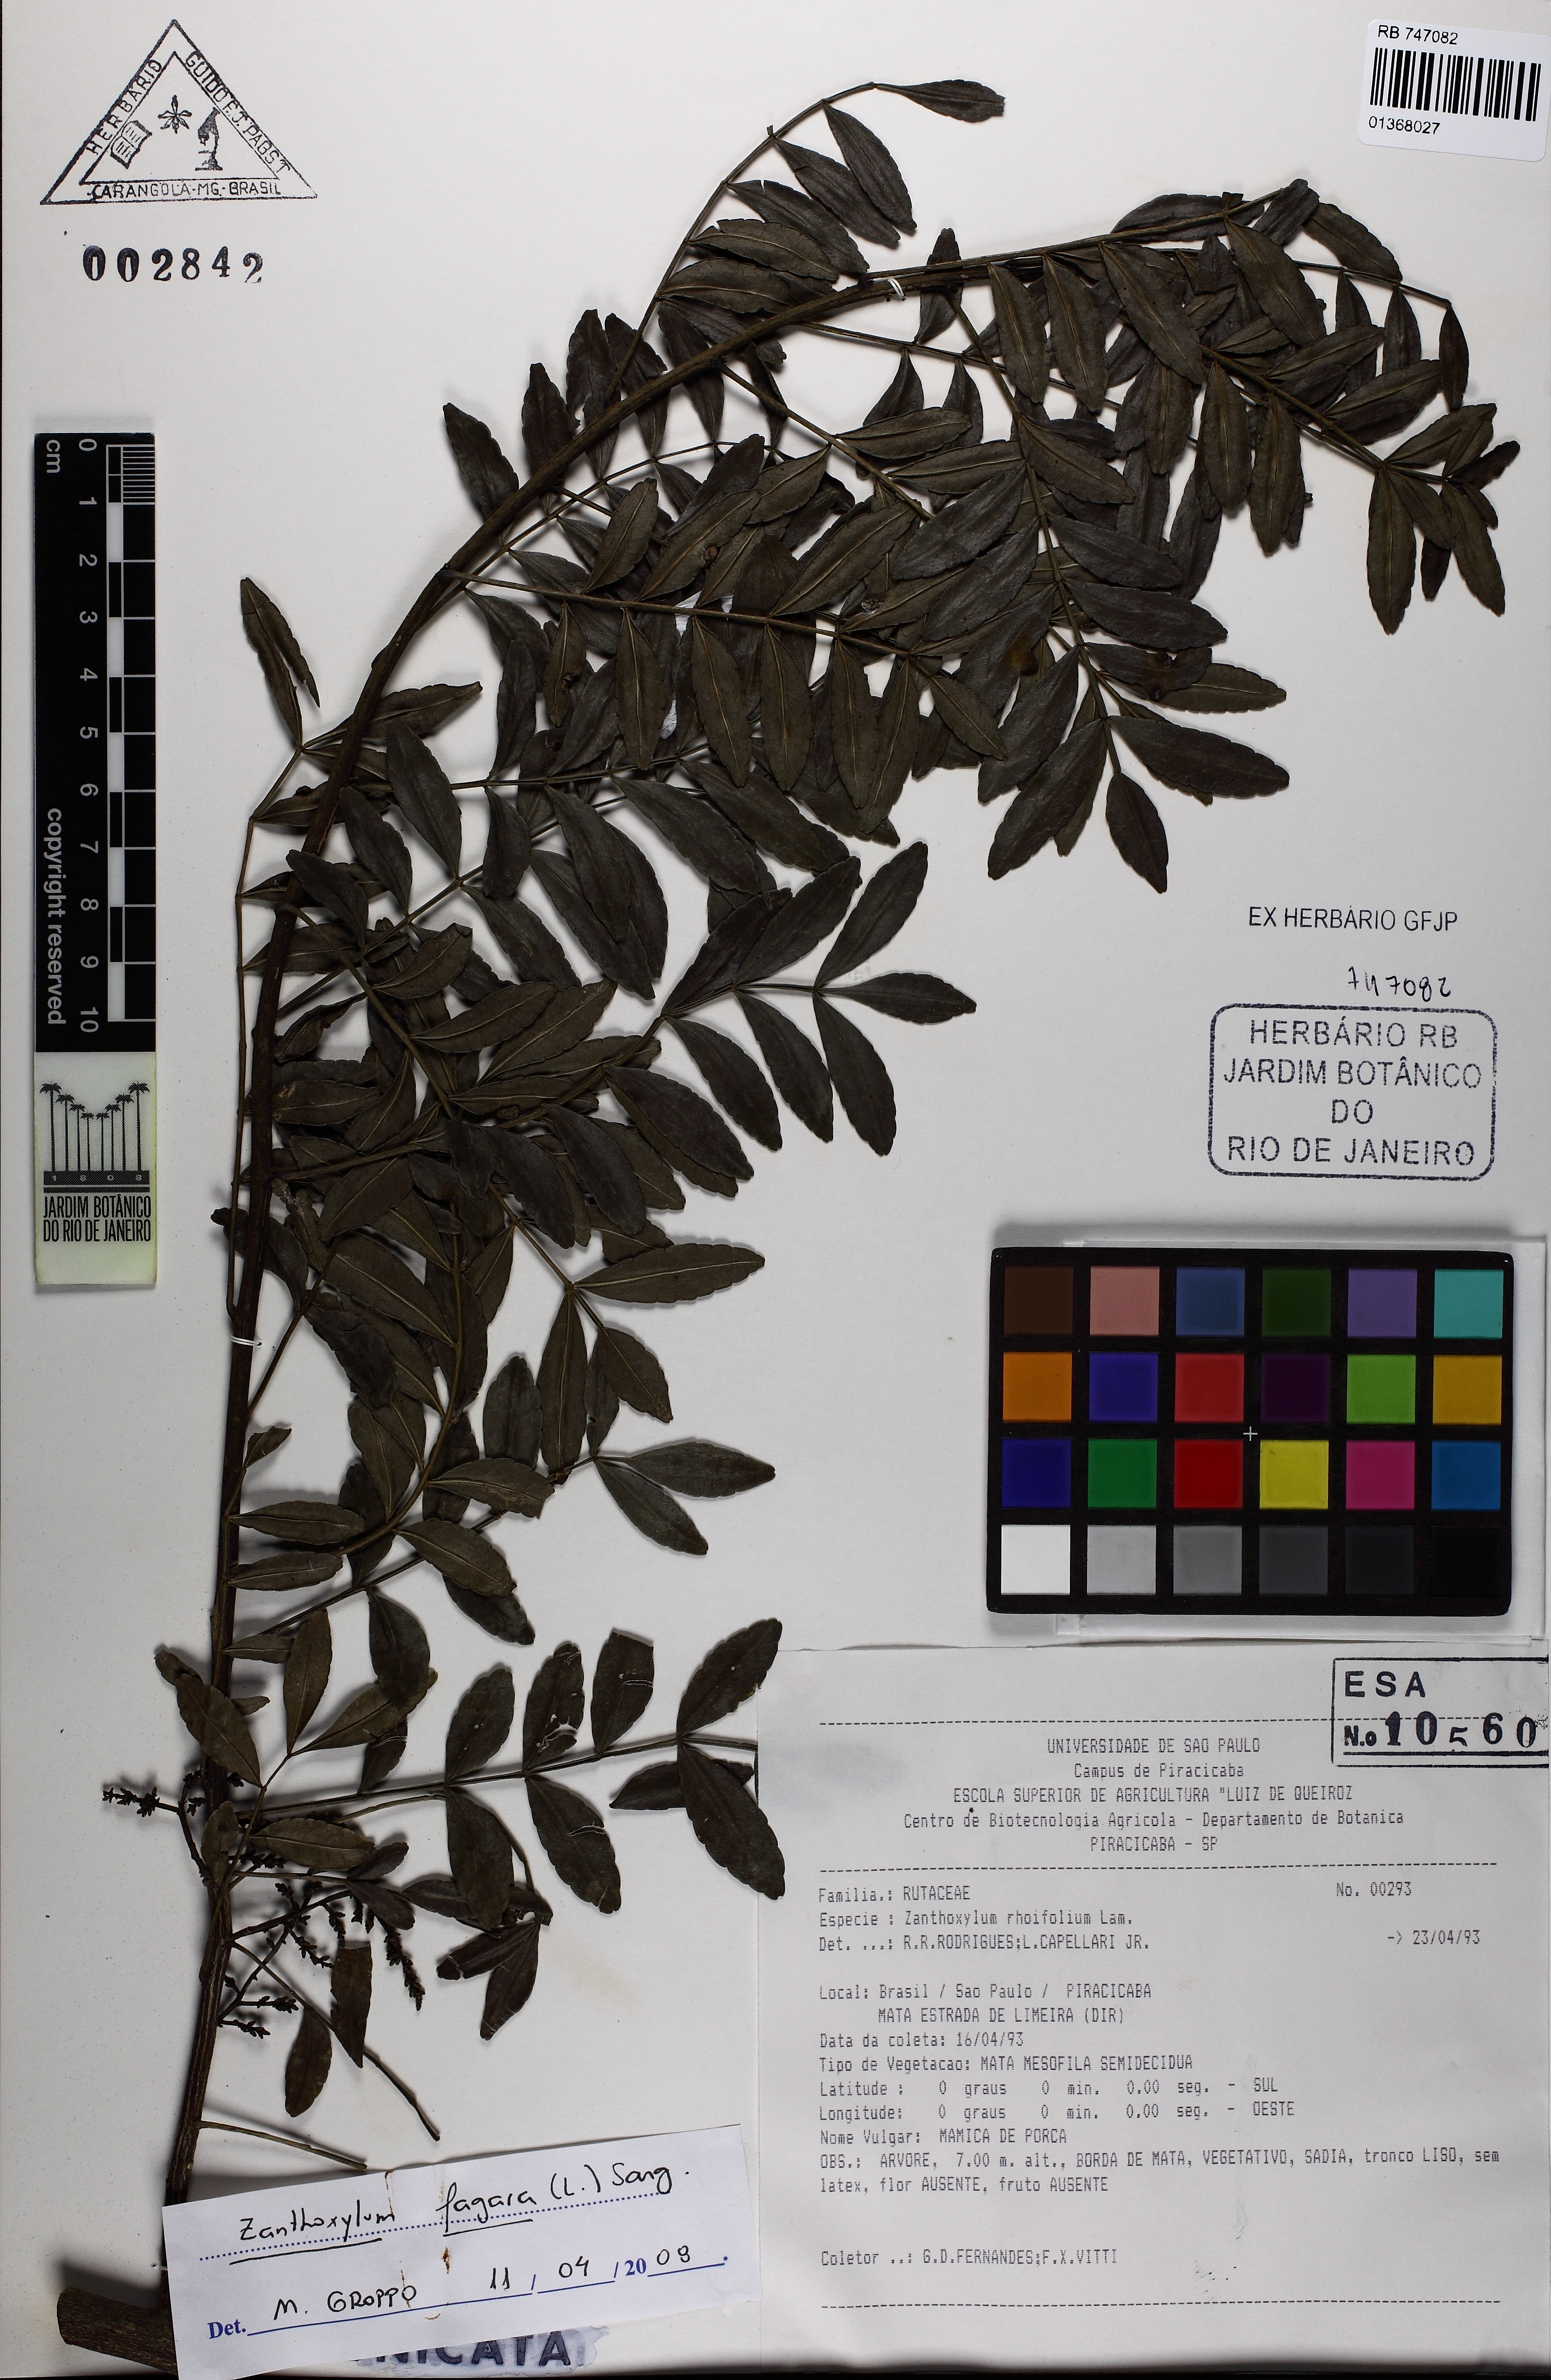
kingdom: Plantae
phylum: Tracheophyta
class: Magnoliopsida
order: Sapindales
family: Rutaceae
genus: Zanthoxylum
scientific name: Zanthoxylum fagara
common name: Lime prickly-ash
